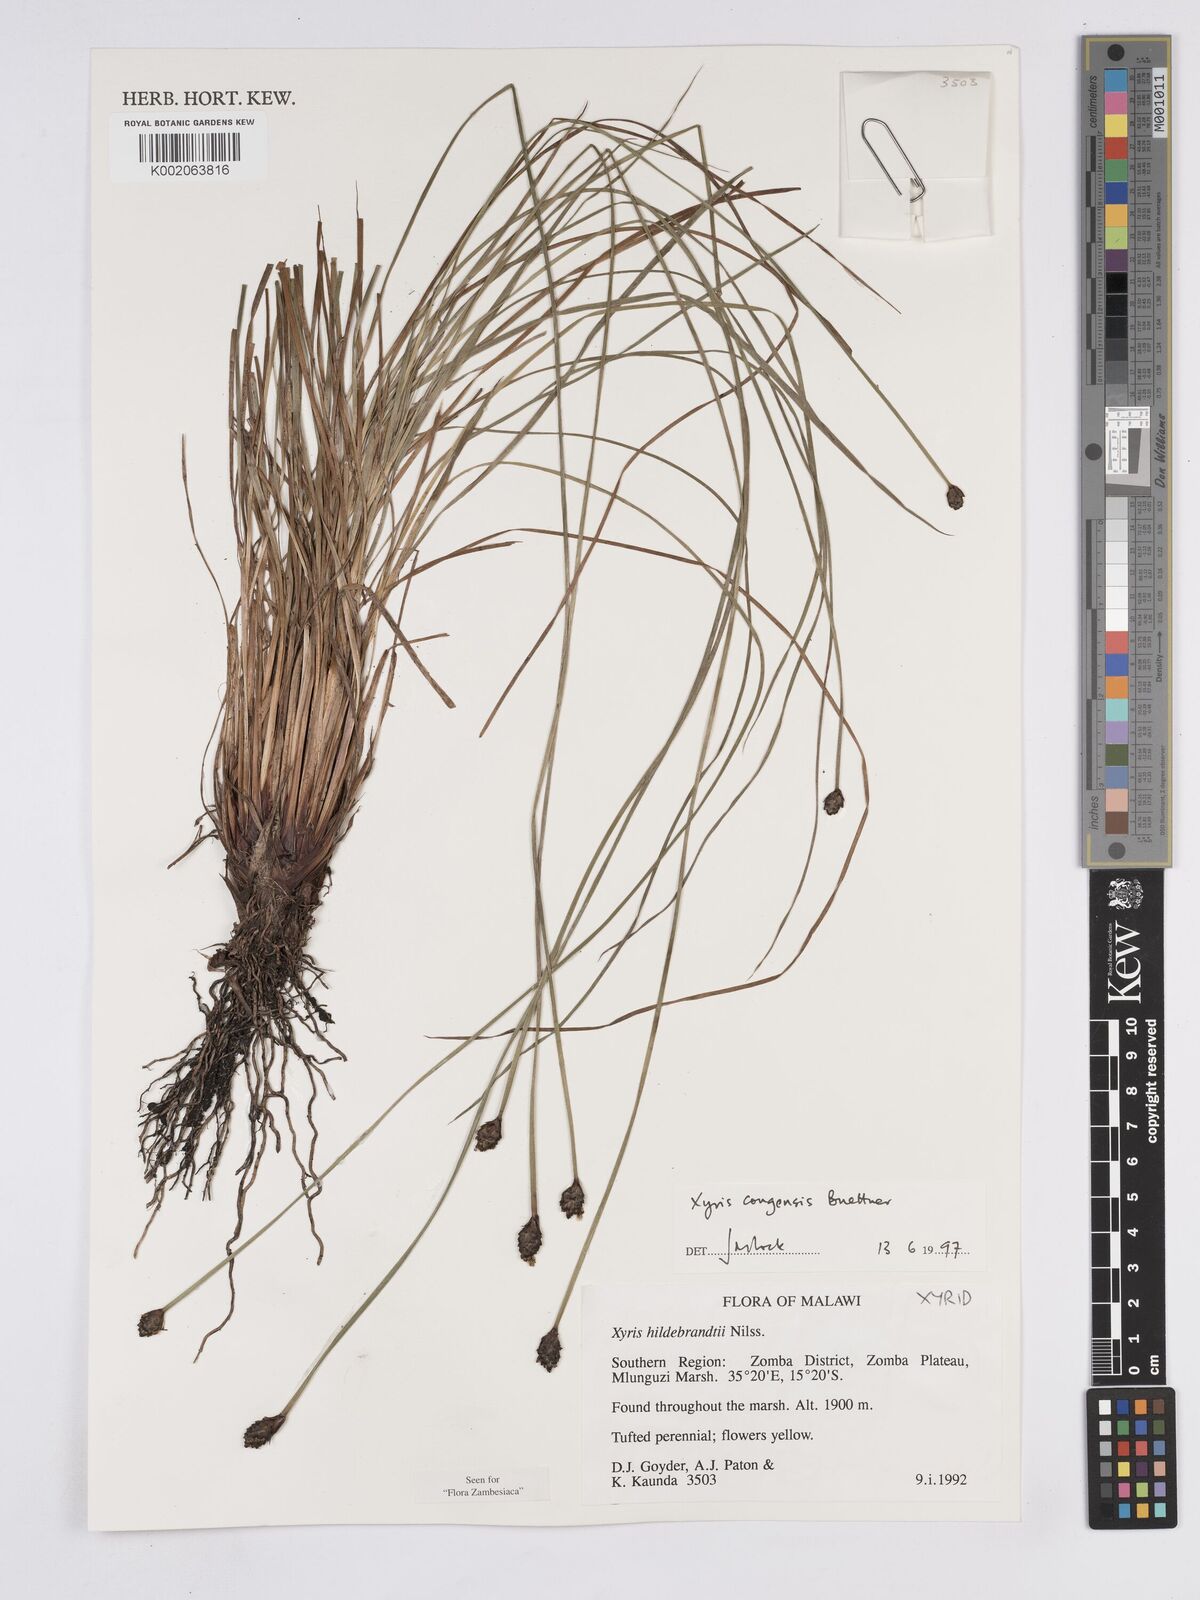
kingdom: Plantae
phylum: Tracheophyta
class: Liliopsida
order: Poales
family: Xyridaceae
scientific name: Xyridaceae
